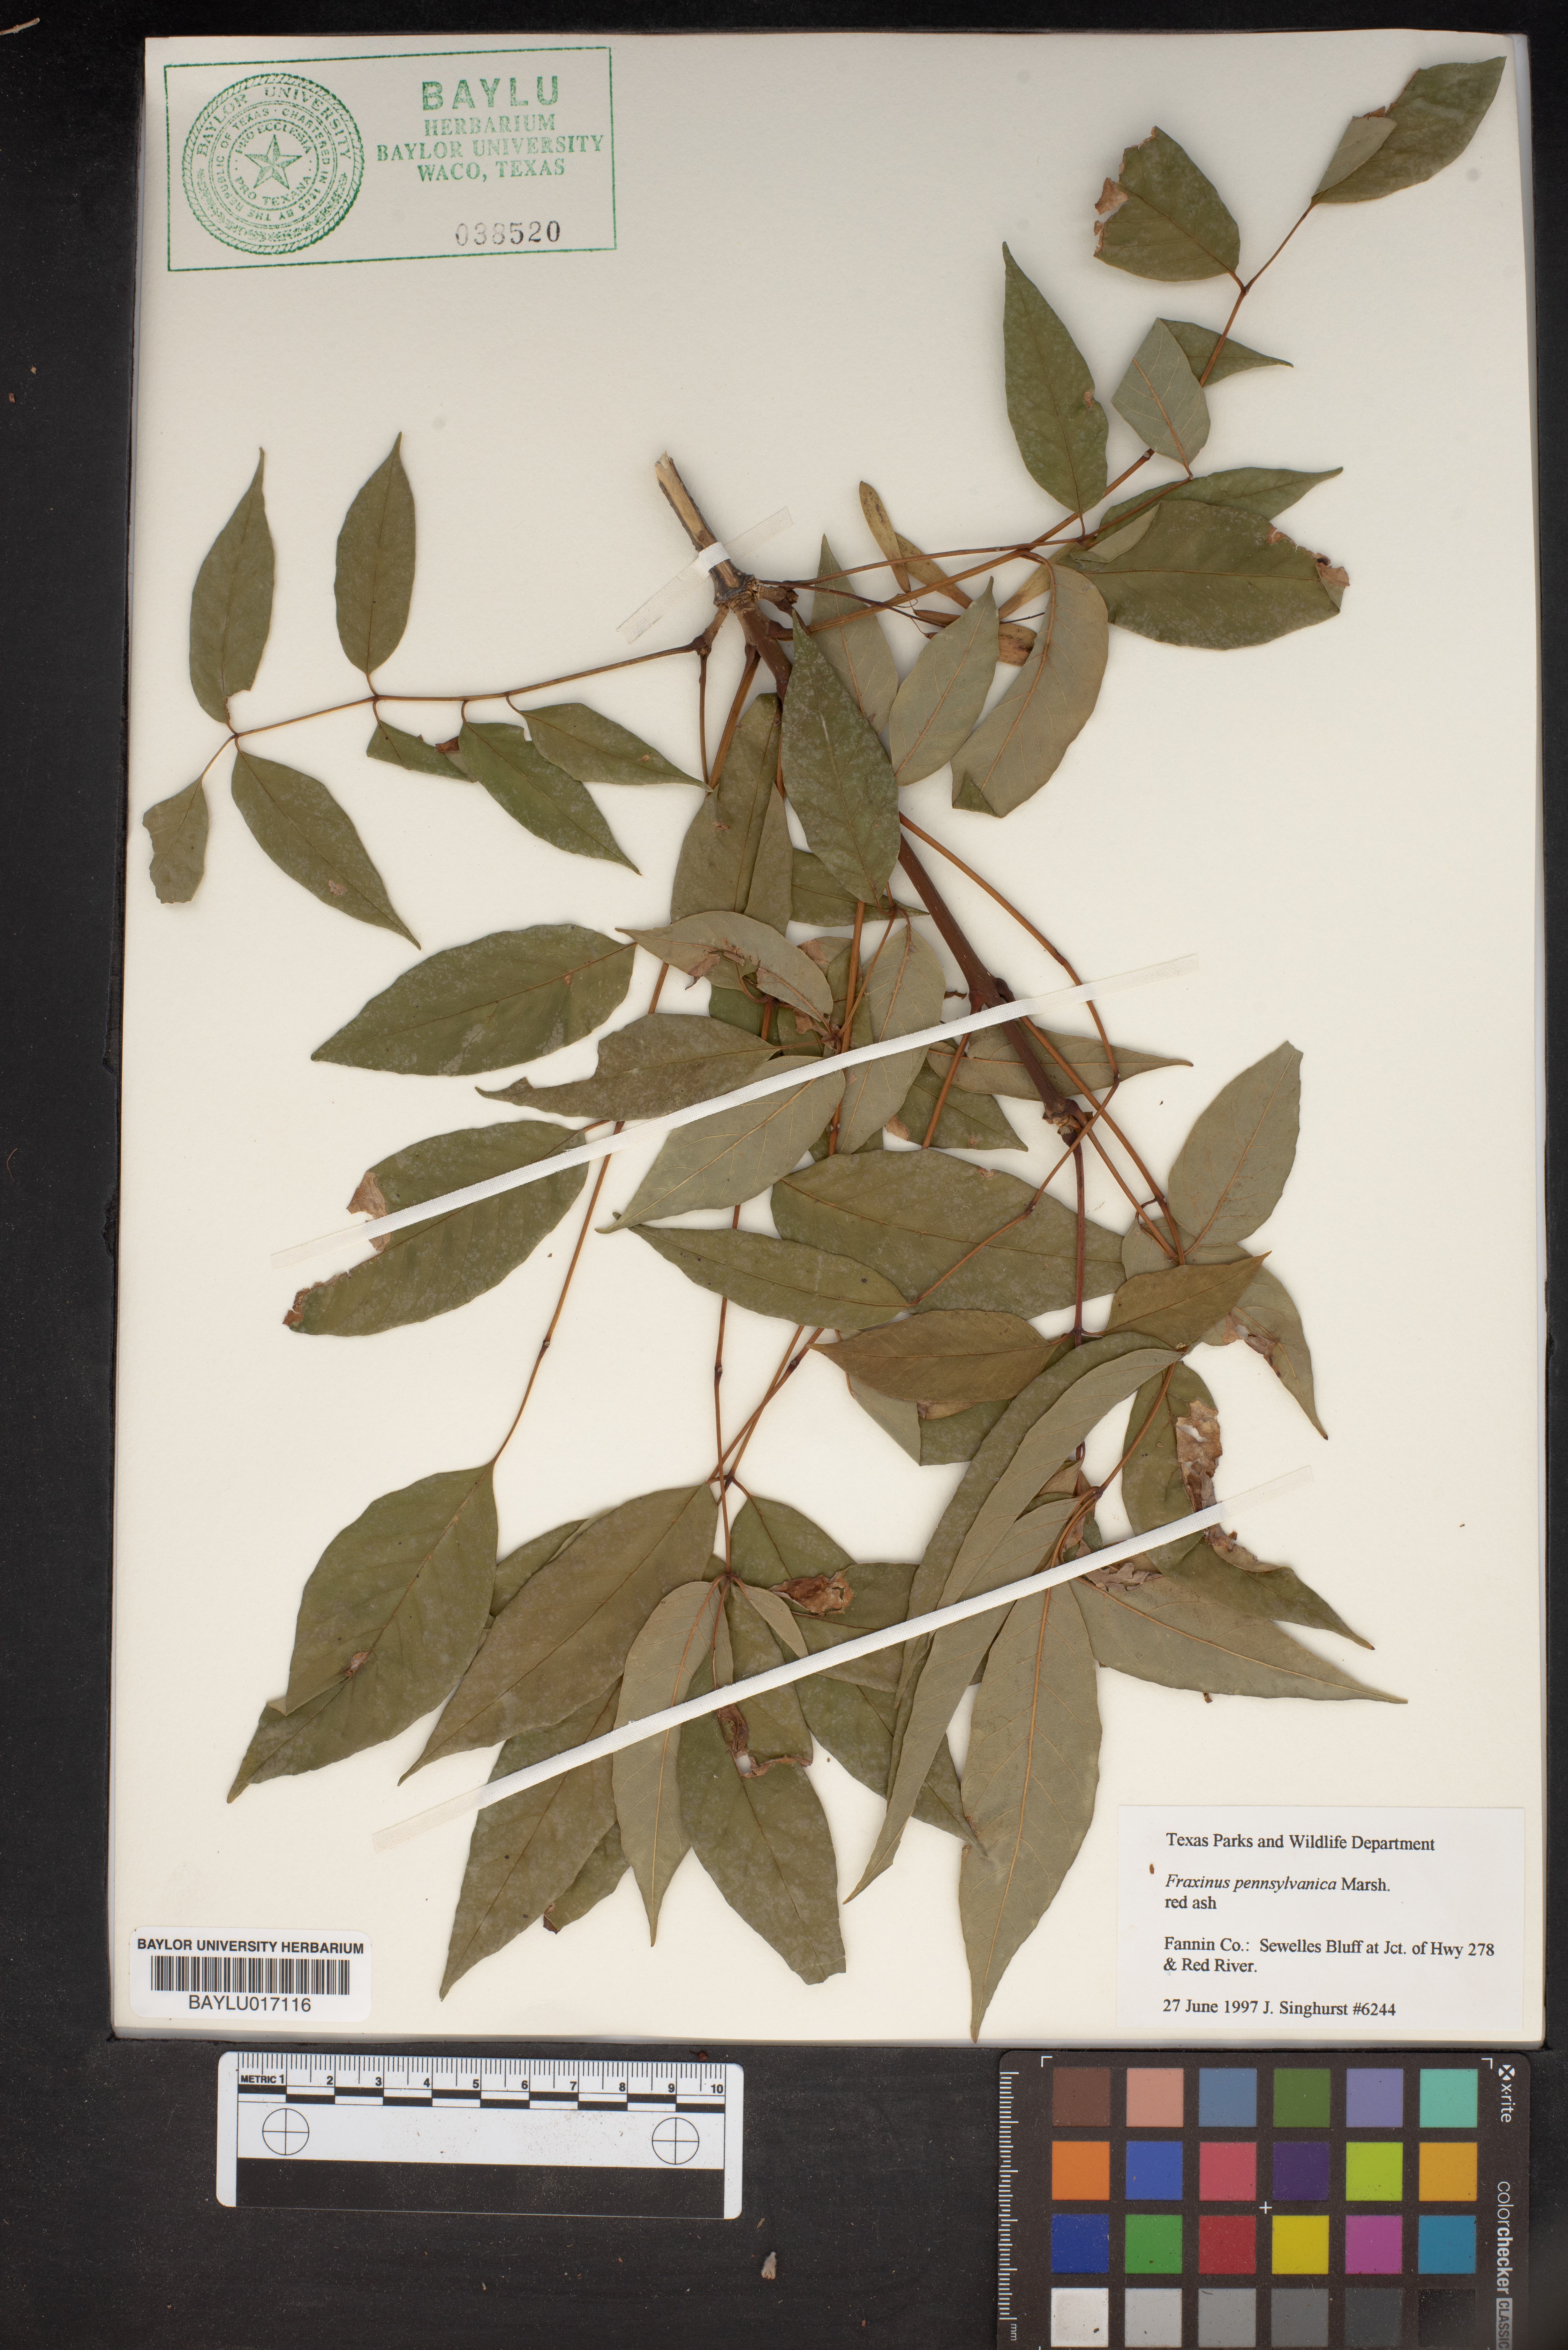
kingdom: Plantae
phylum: Tracheophyta
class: Magnoliopsida
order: Lamiales
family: Oleaceae
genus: Fraxinus
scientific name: Fraxinus pennsylvanica
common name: Green ash
